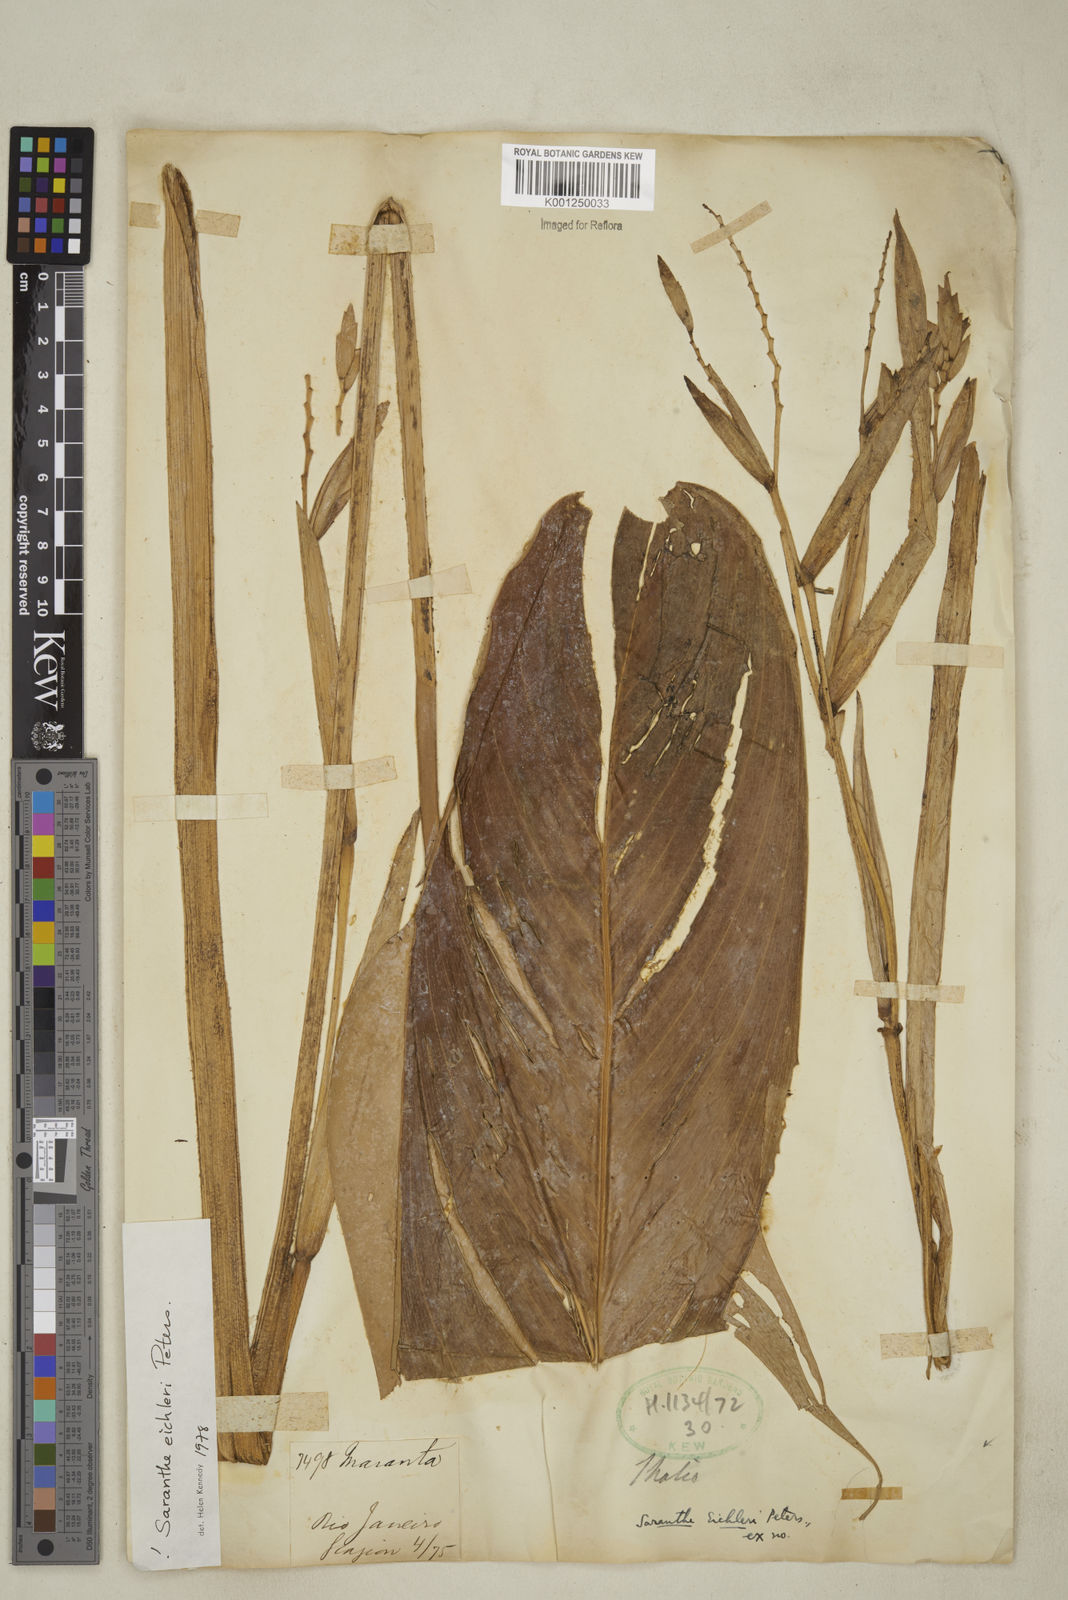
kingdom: Plantae
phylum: Tracheophyta
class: Liliopsida
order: Zingiberales
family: Marantaceae
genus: Saranthe
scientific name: Saranthe eichleri
